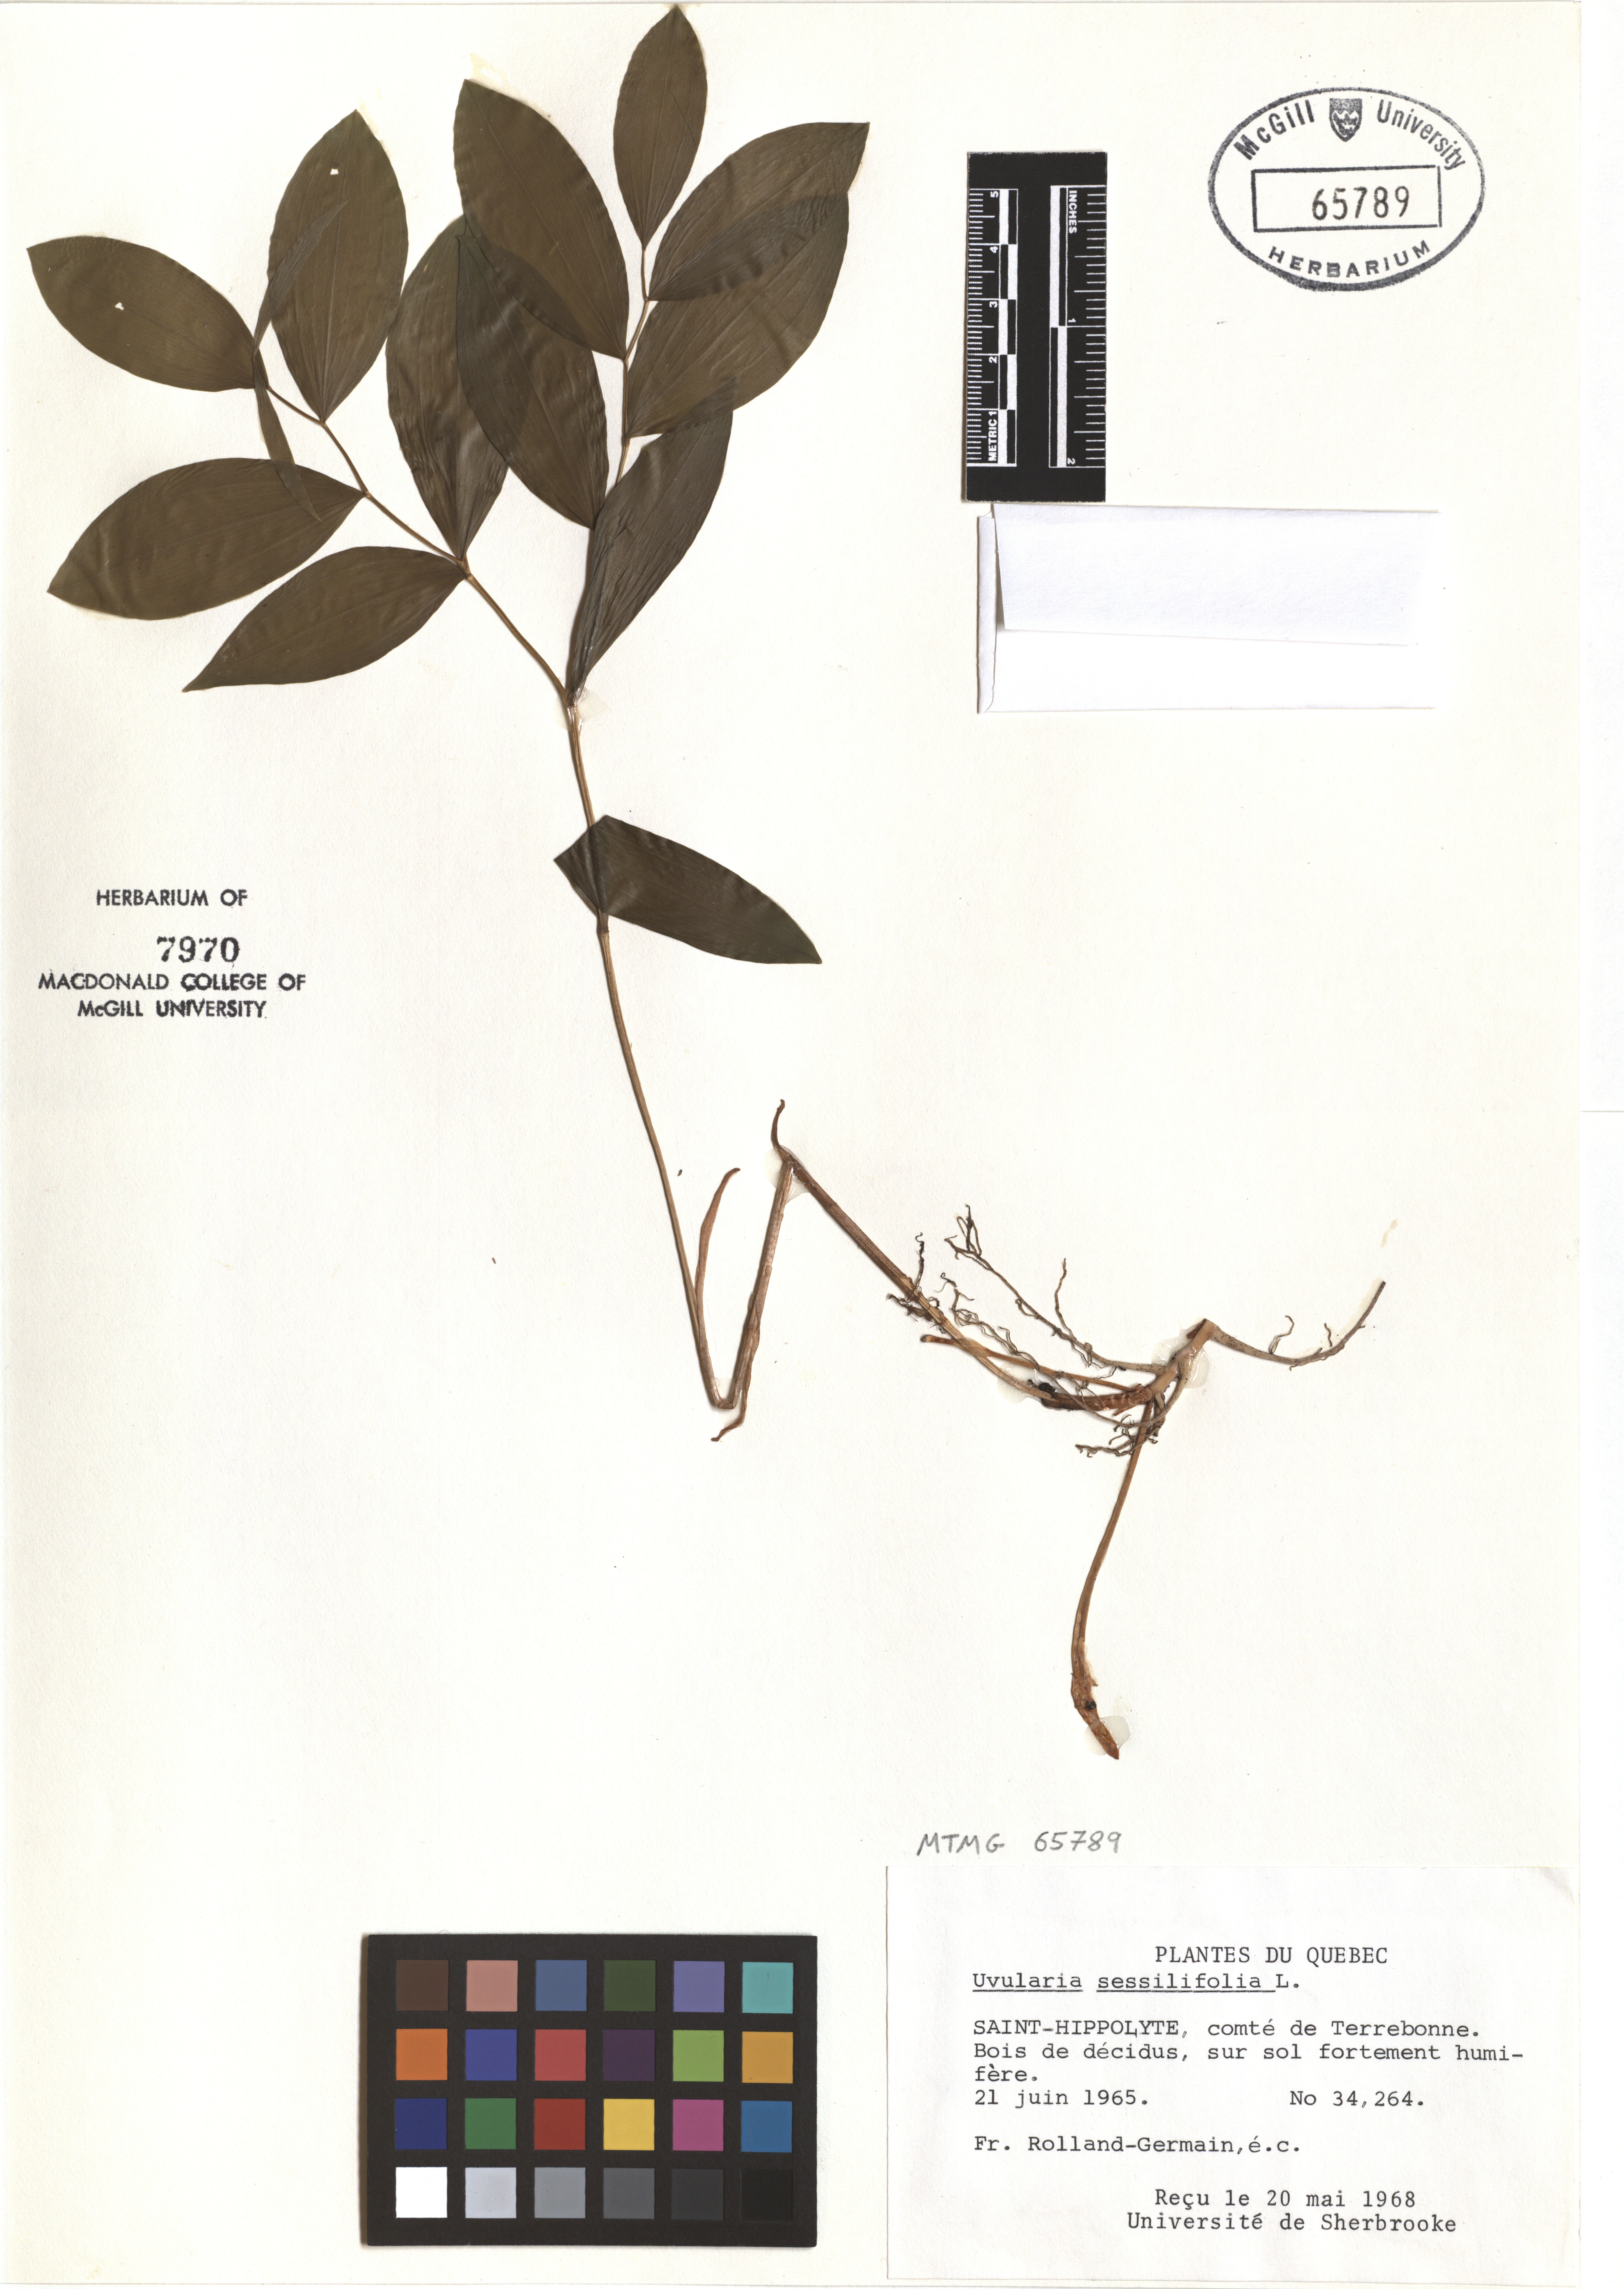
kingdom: Plantae
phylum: Tracheophyta
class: Liliopsida
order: Liliales
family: Colchicaceae
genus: Uvularia
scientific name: Uvularia sessilifolia
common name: Straw-lily
